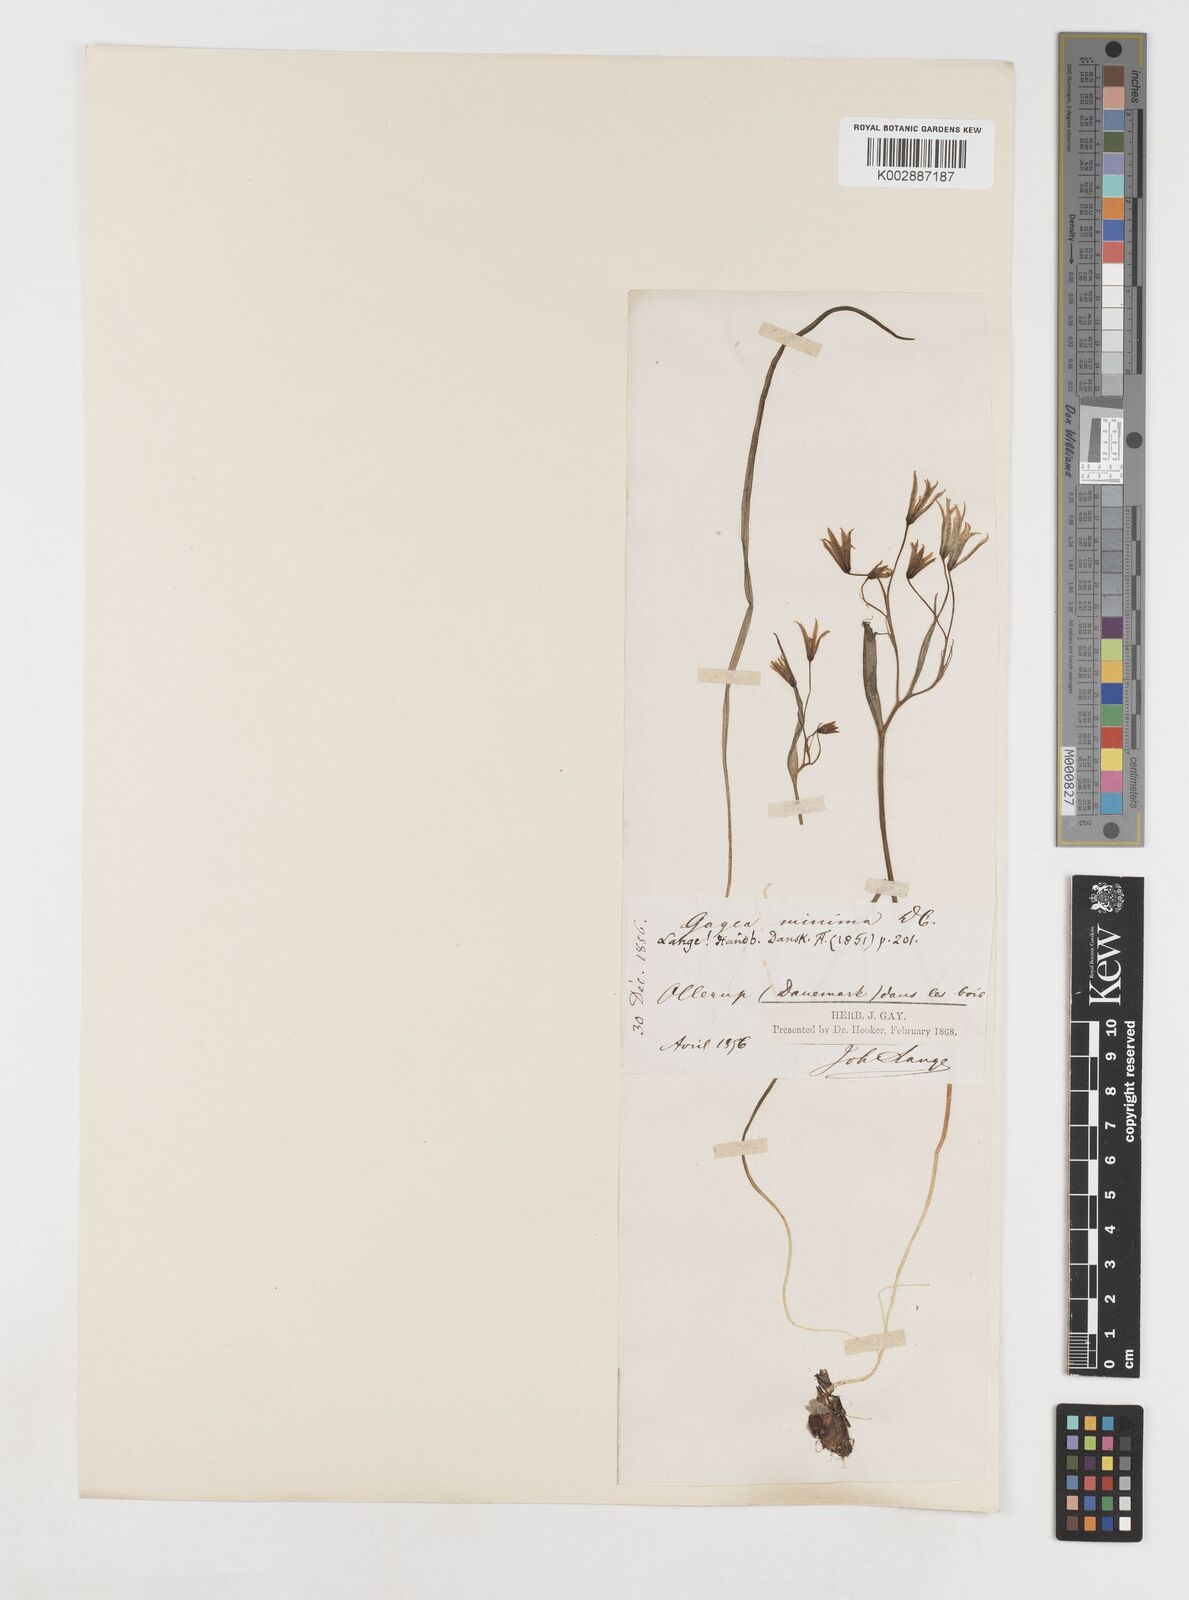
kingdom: Plantae
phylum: Tracheophyta
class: Liliopsida
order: Liliales
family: Liliaceae
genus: Gagea
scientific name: Gagea minima
